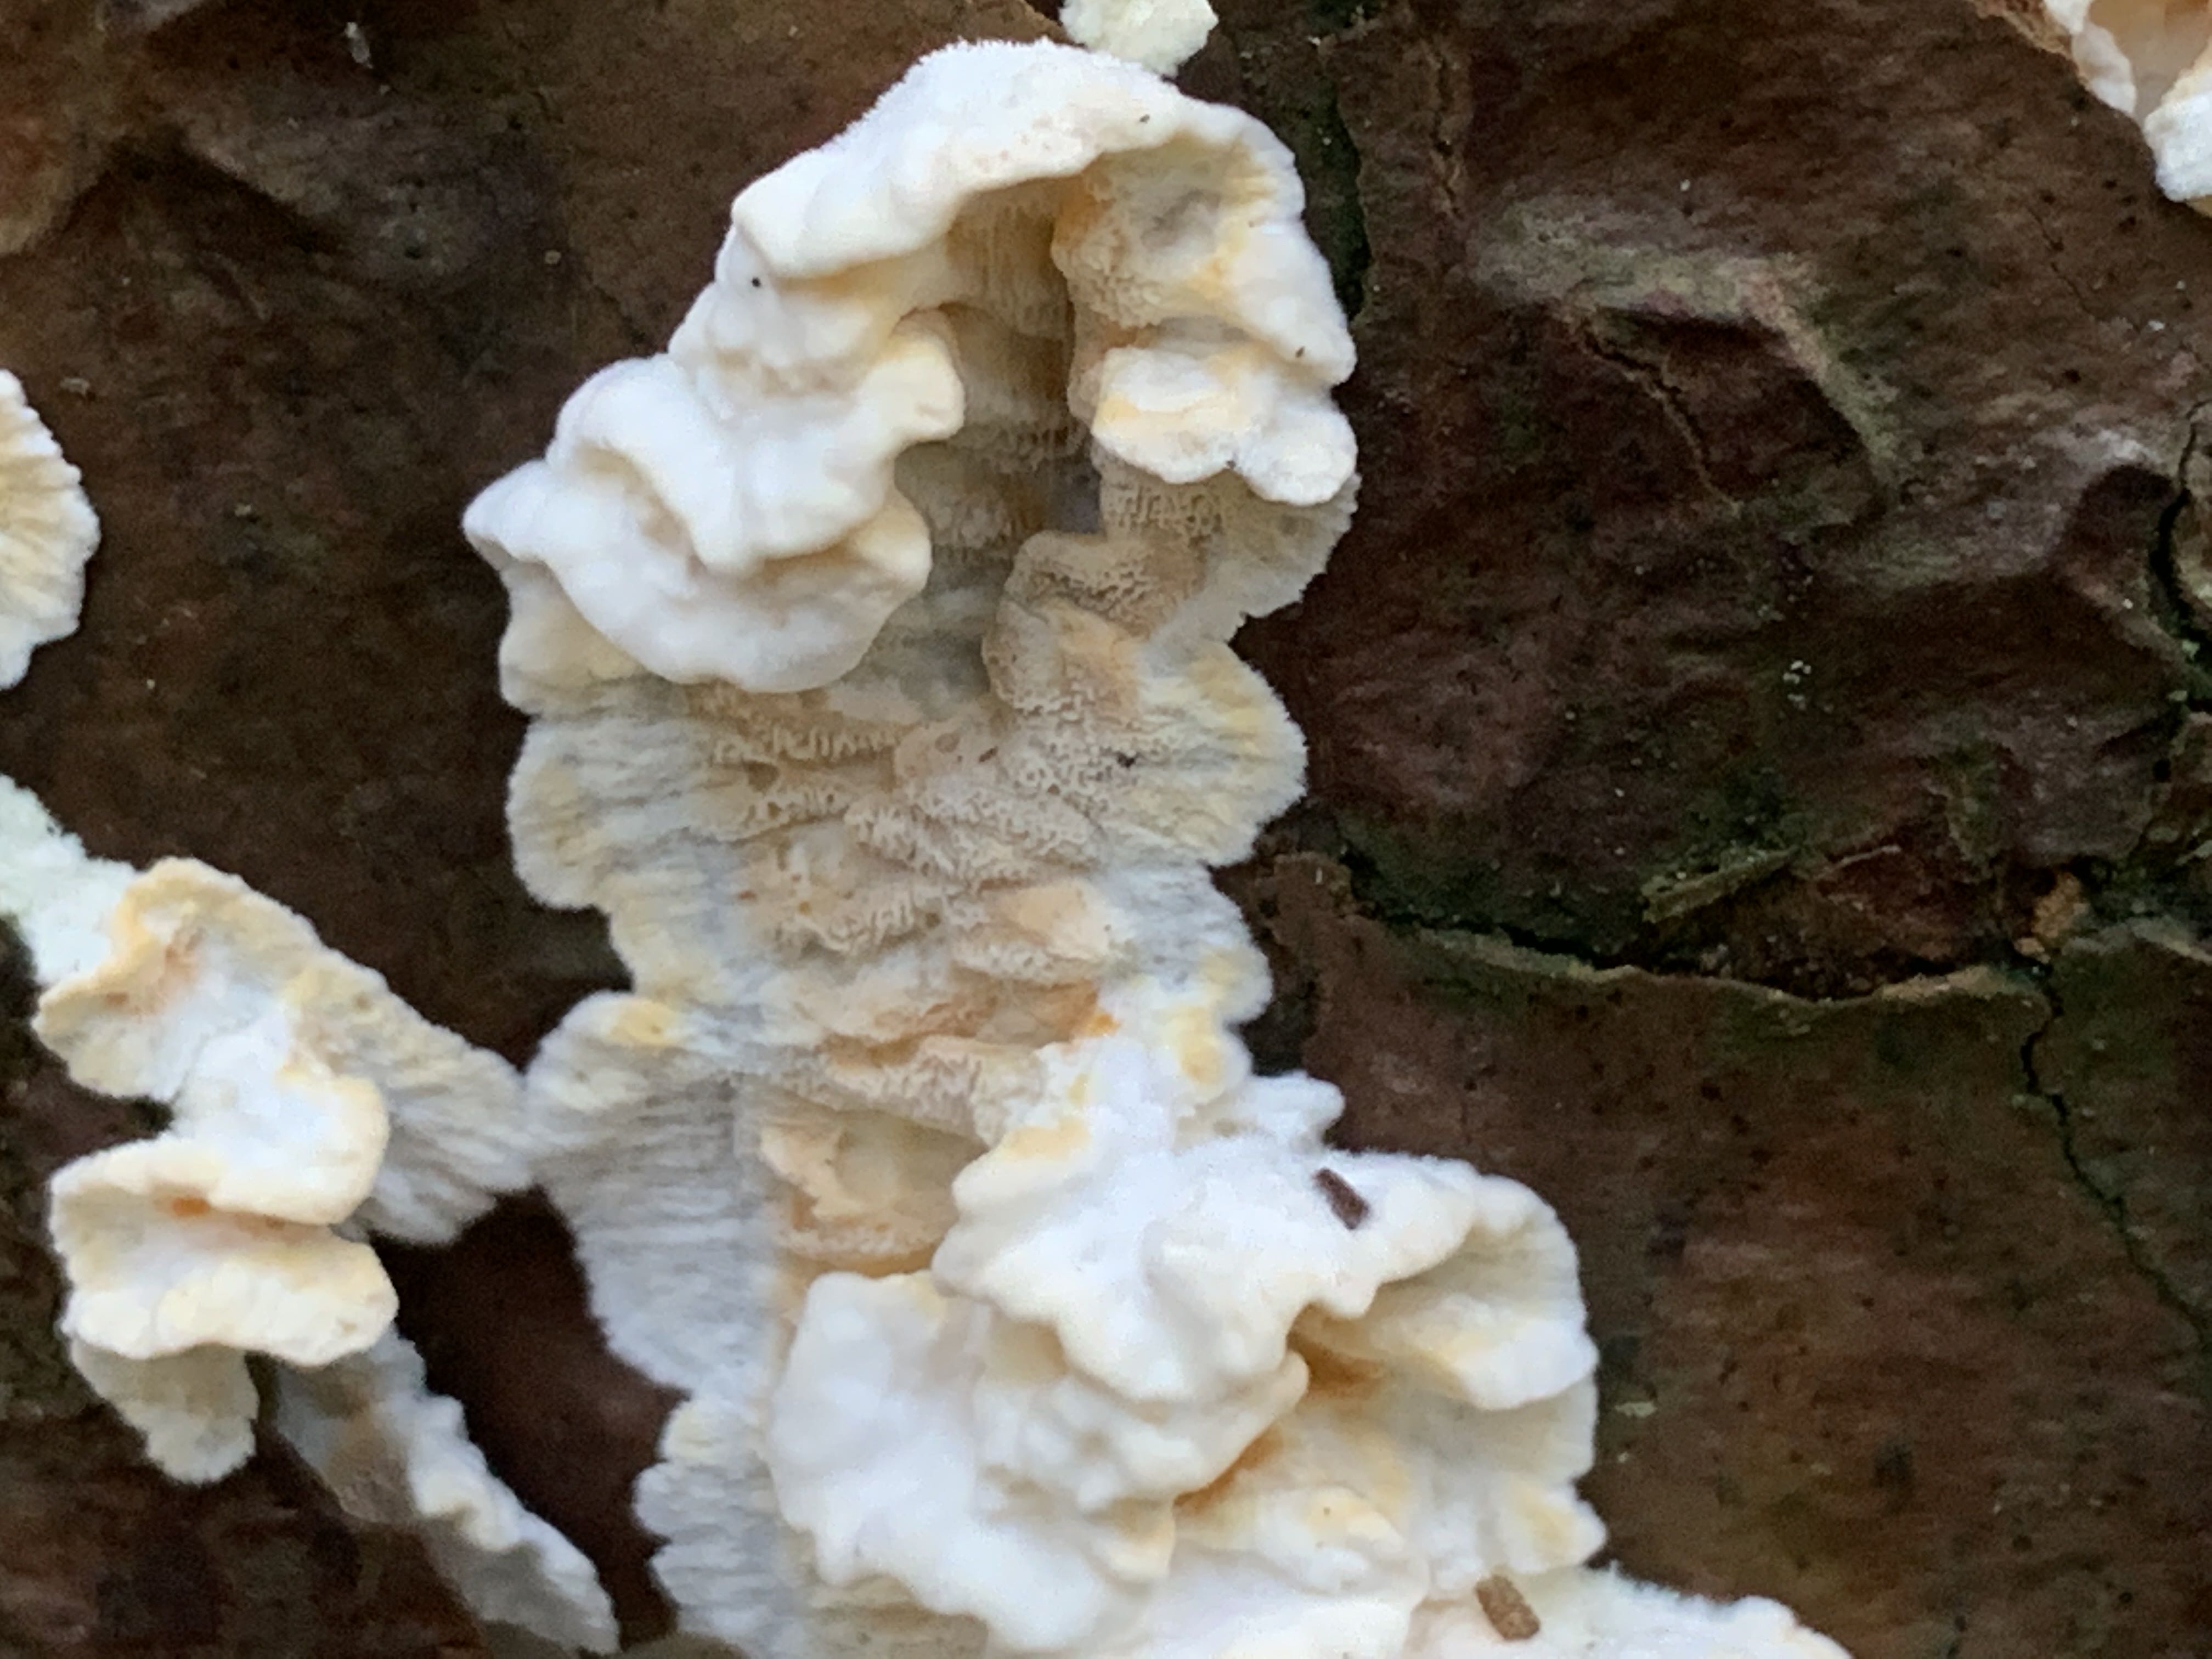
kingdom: Fungi
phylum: Basidiomycota
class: Agaricomycetes
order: Polyporales
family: Incrustoporiaceae
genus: Skeletocutis
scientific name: Skeletocutis amorpha
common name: orange krystalporesvamp
